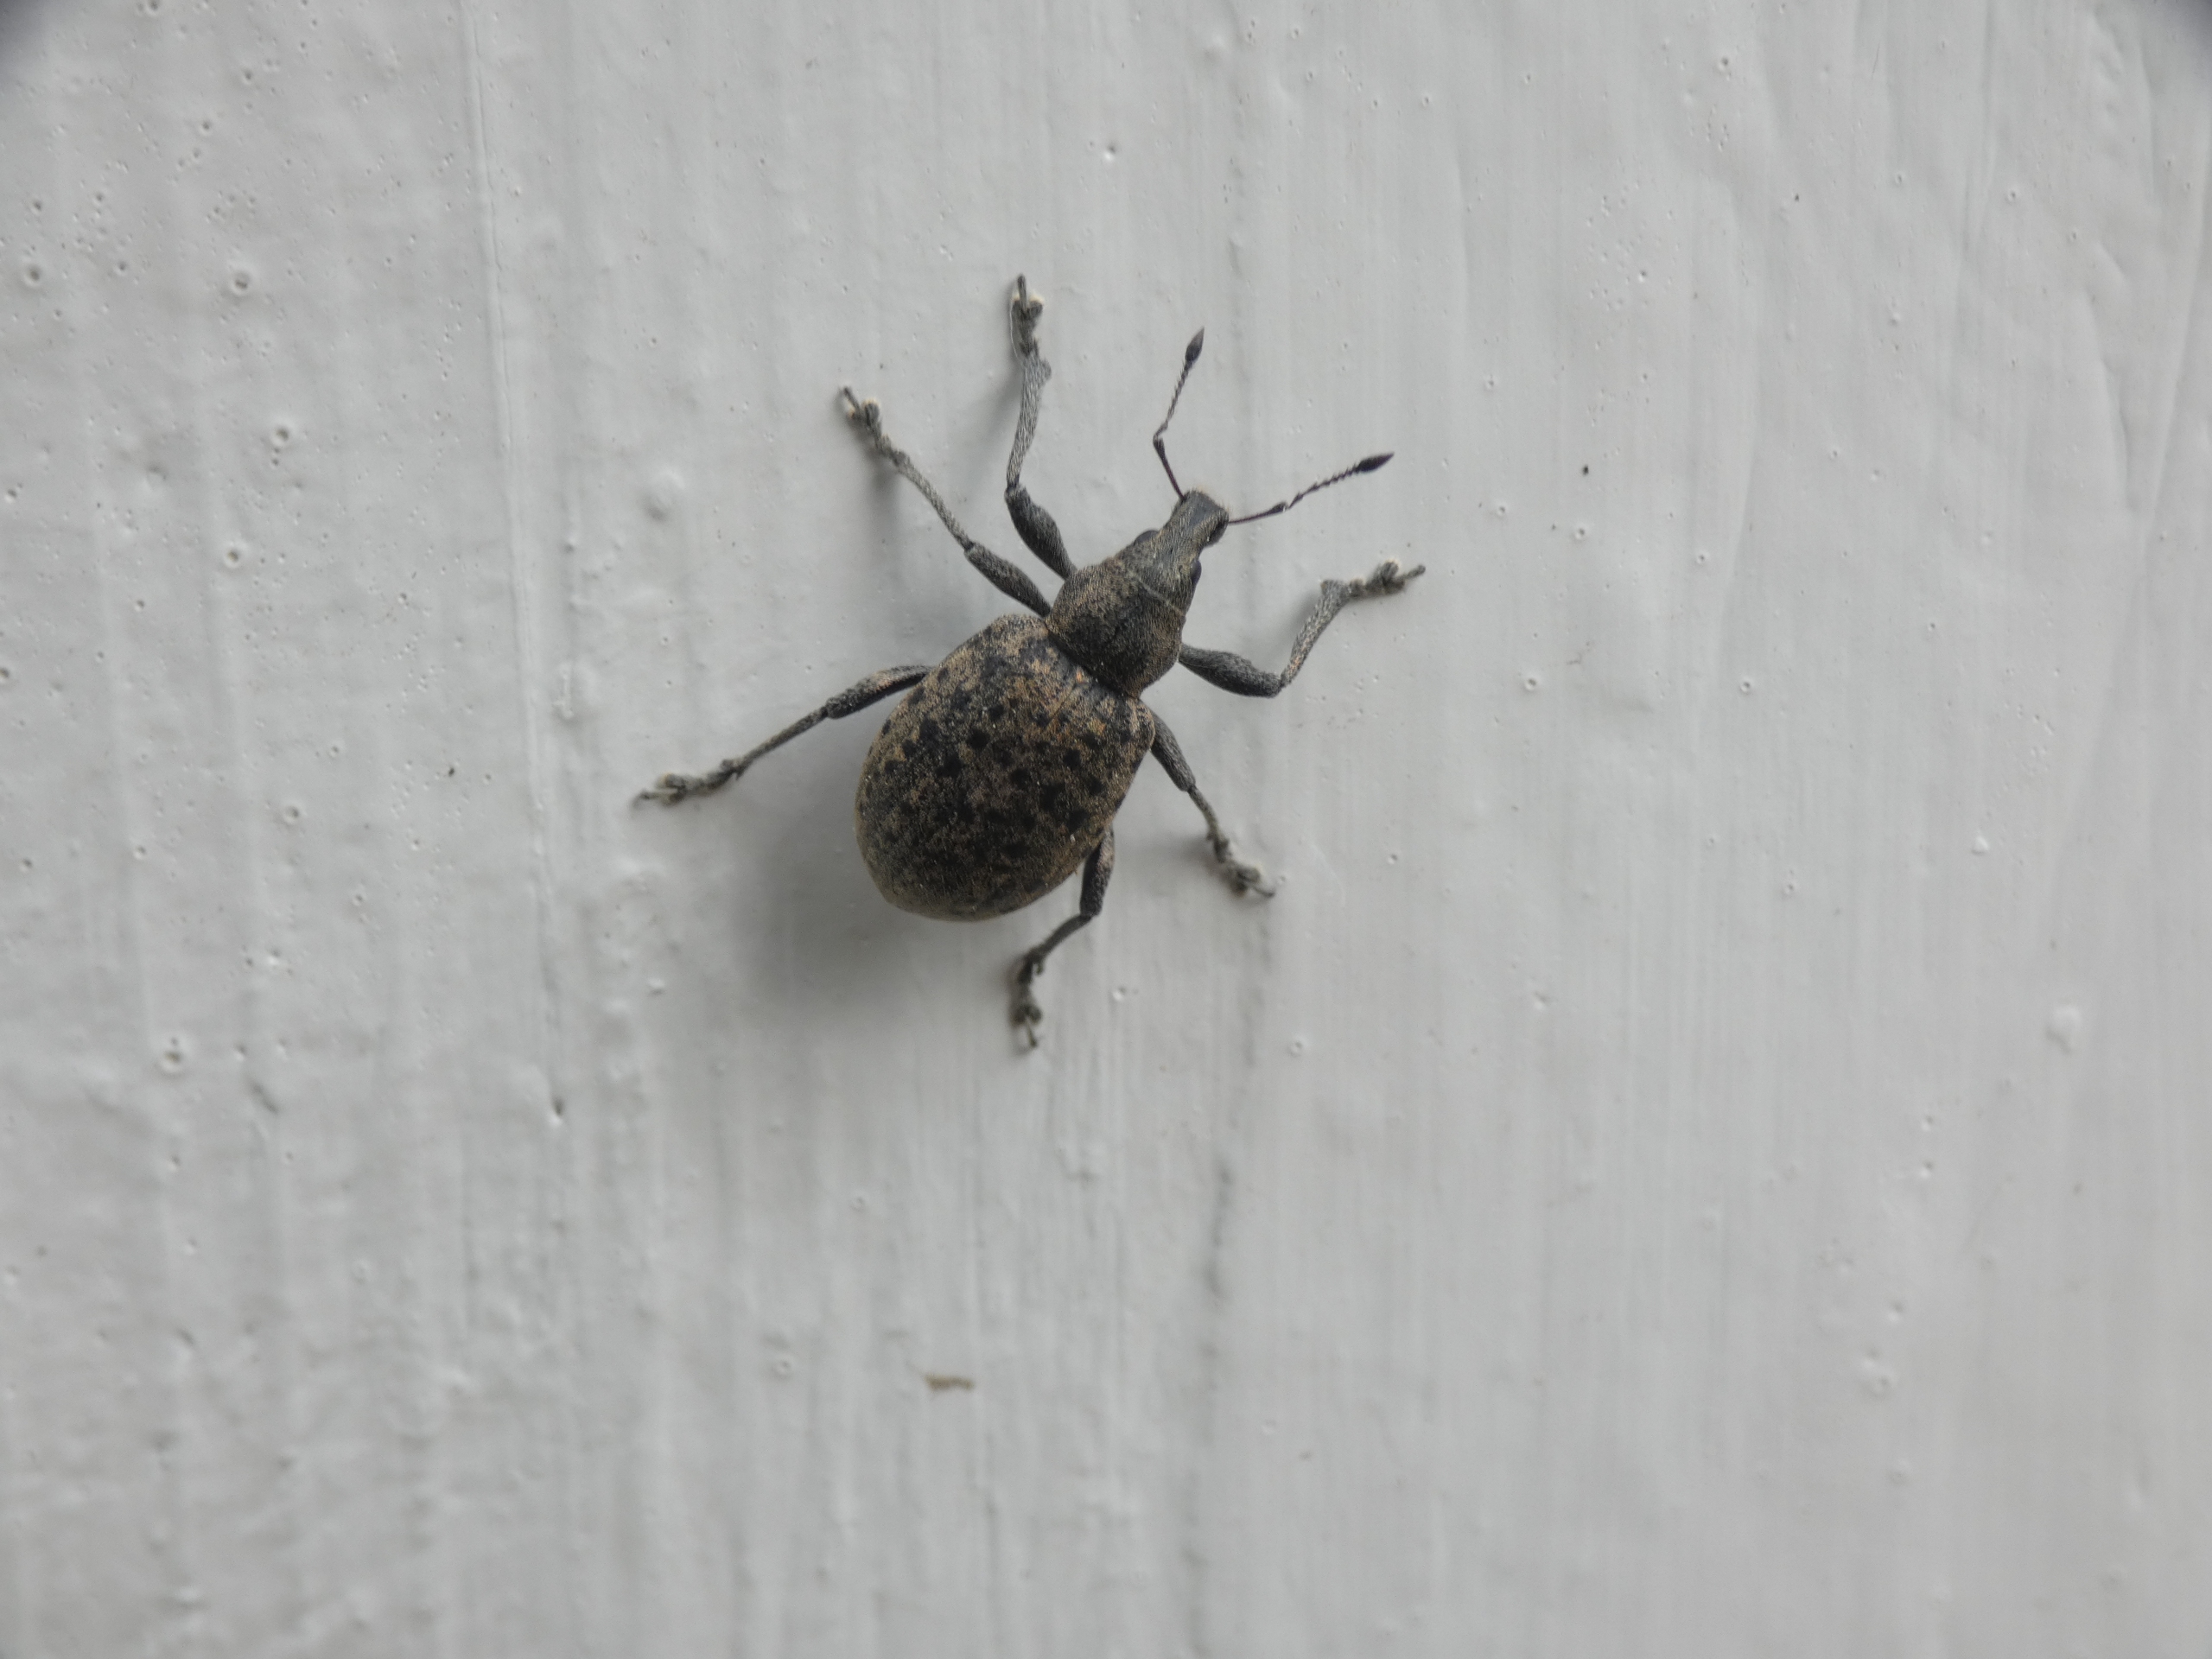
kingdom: Animalia
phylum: Arthropoda
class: Insecta
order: Coleoptera
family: Curculionidae
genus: Liophloeus
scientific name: Liophloeus tessulatus
